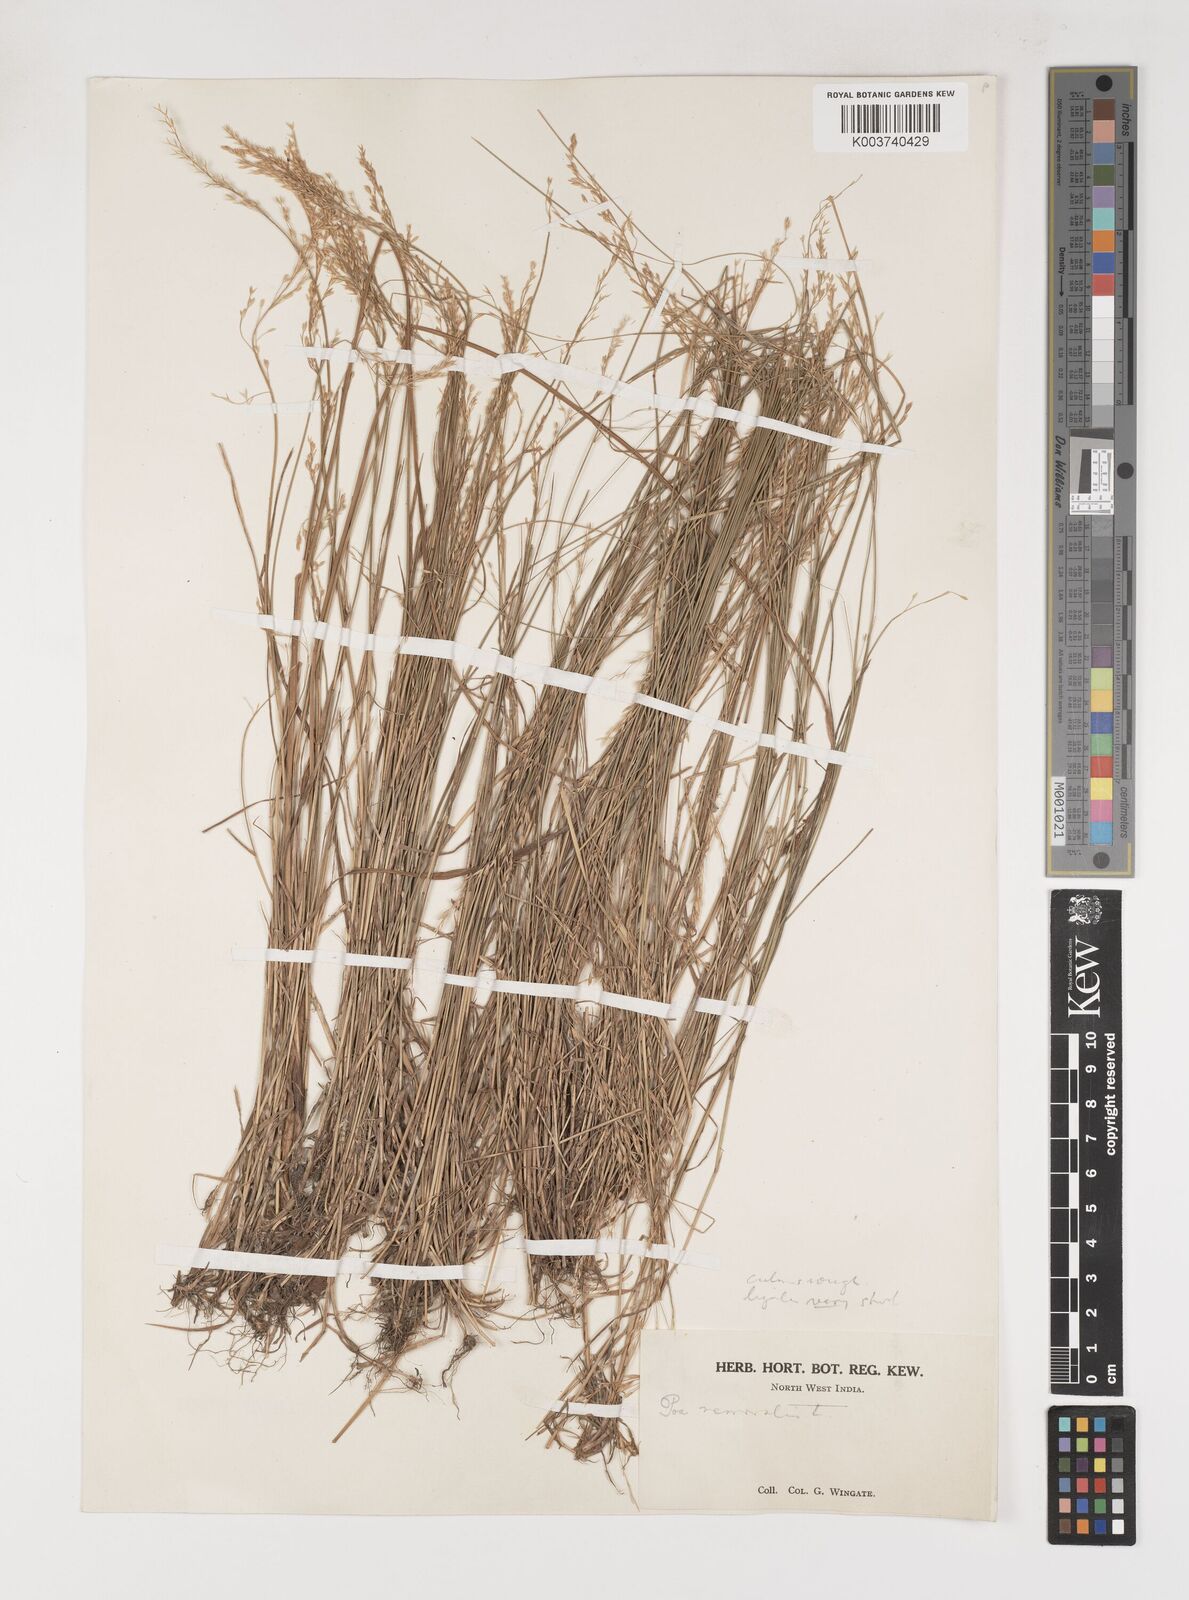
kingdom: Plantae
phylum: Tracheophyta
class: Liliopsida
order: Poales
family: Poaceae
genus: Poa
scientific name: Poa nemoralis
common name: Wood bluegrass
